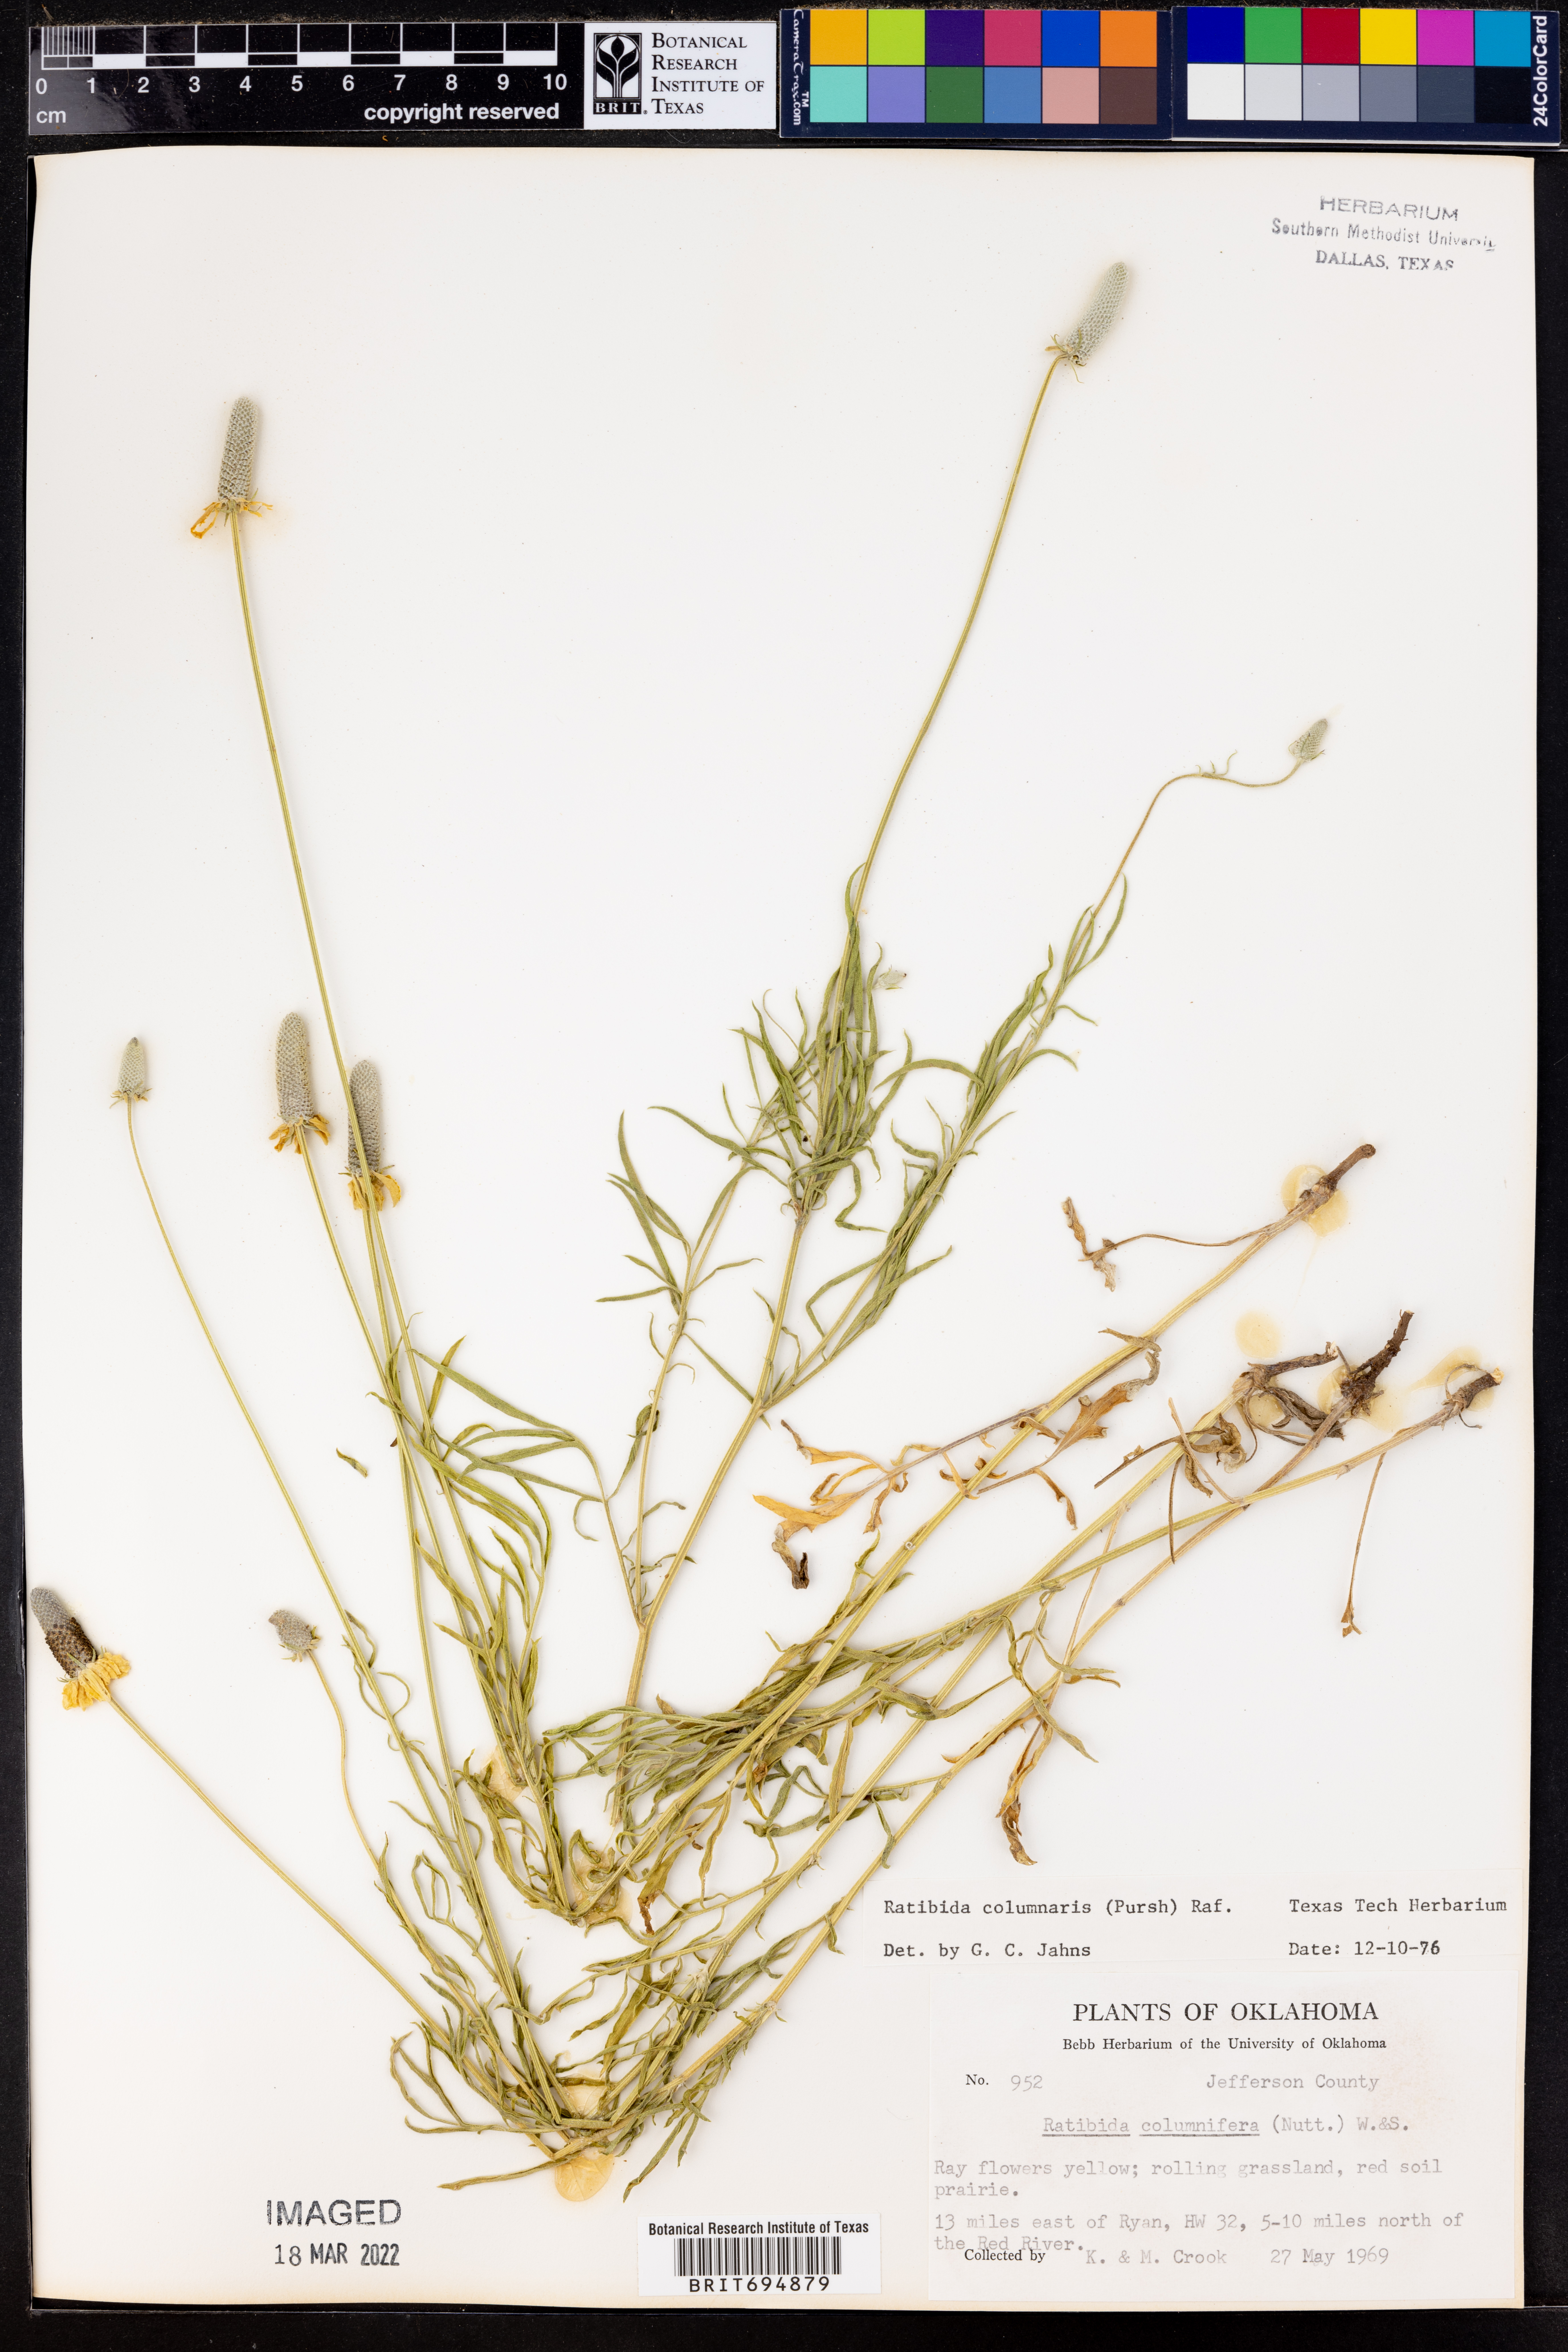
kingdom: Plantae
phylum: Tracheophyta
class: Magnoliopsida
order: Asterales
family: Asteraceae
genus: Ratibida
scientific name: Ratibida columnifera
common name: Prairie coneflower
